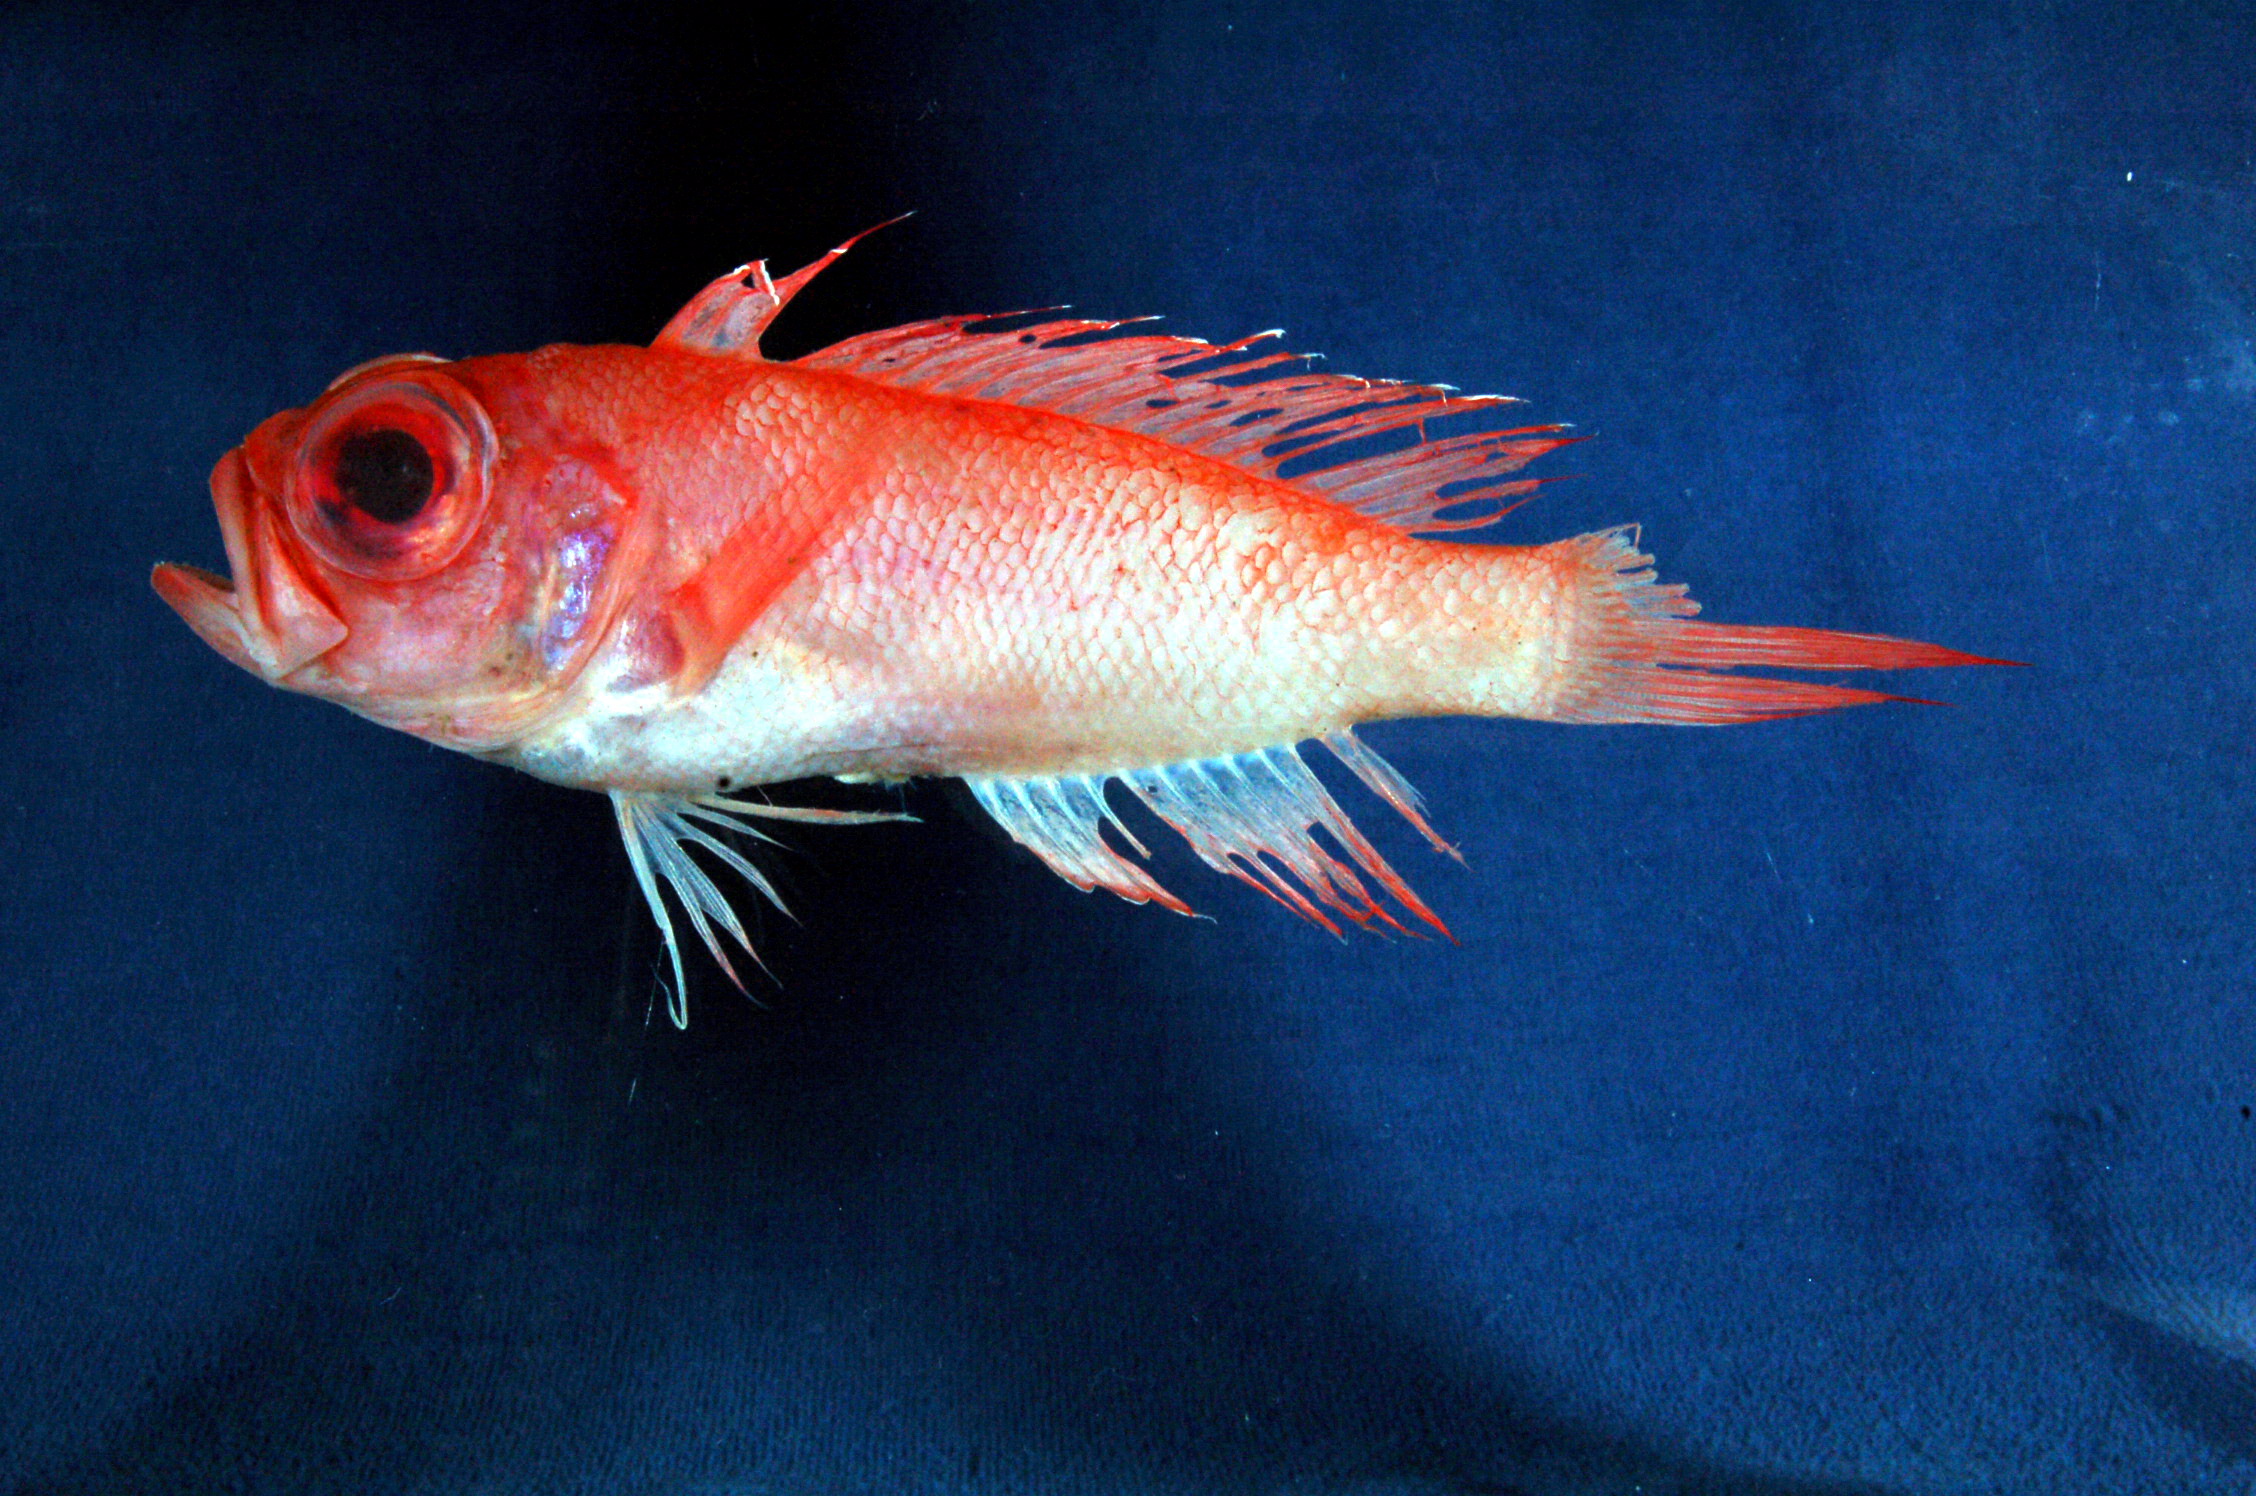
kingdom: Animalia
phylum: Chordata
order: Perciformes
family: Cepolidae
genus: Owstonia
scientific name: Owstonia raredonae
